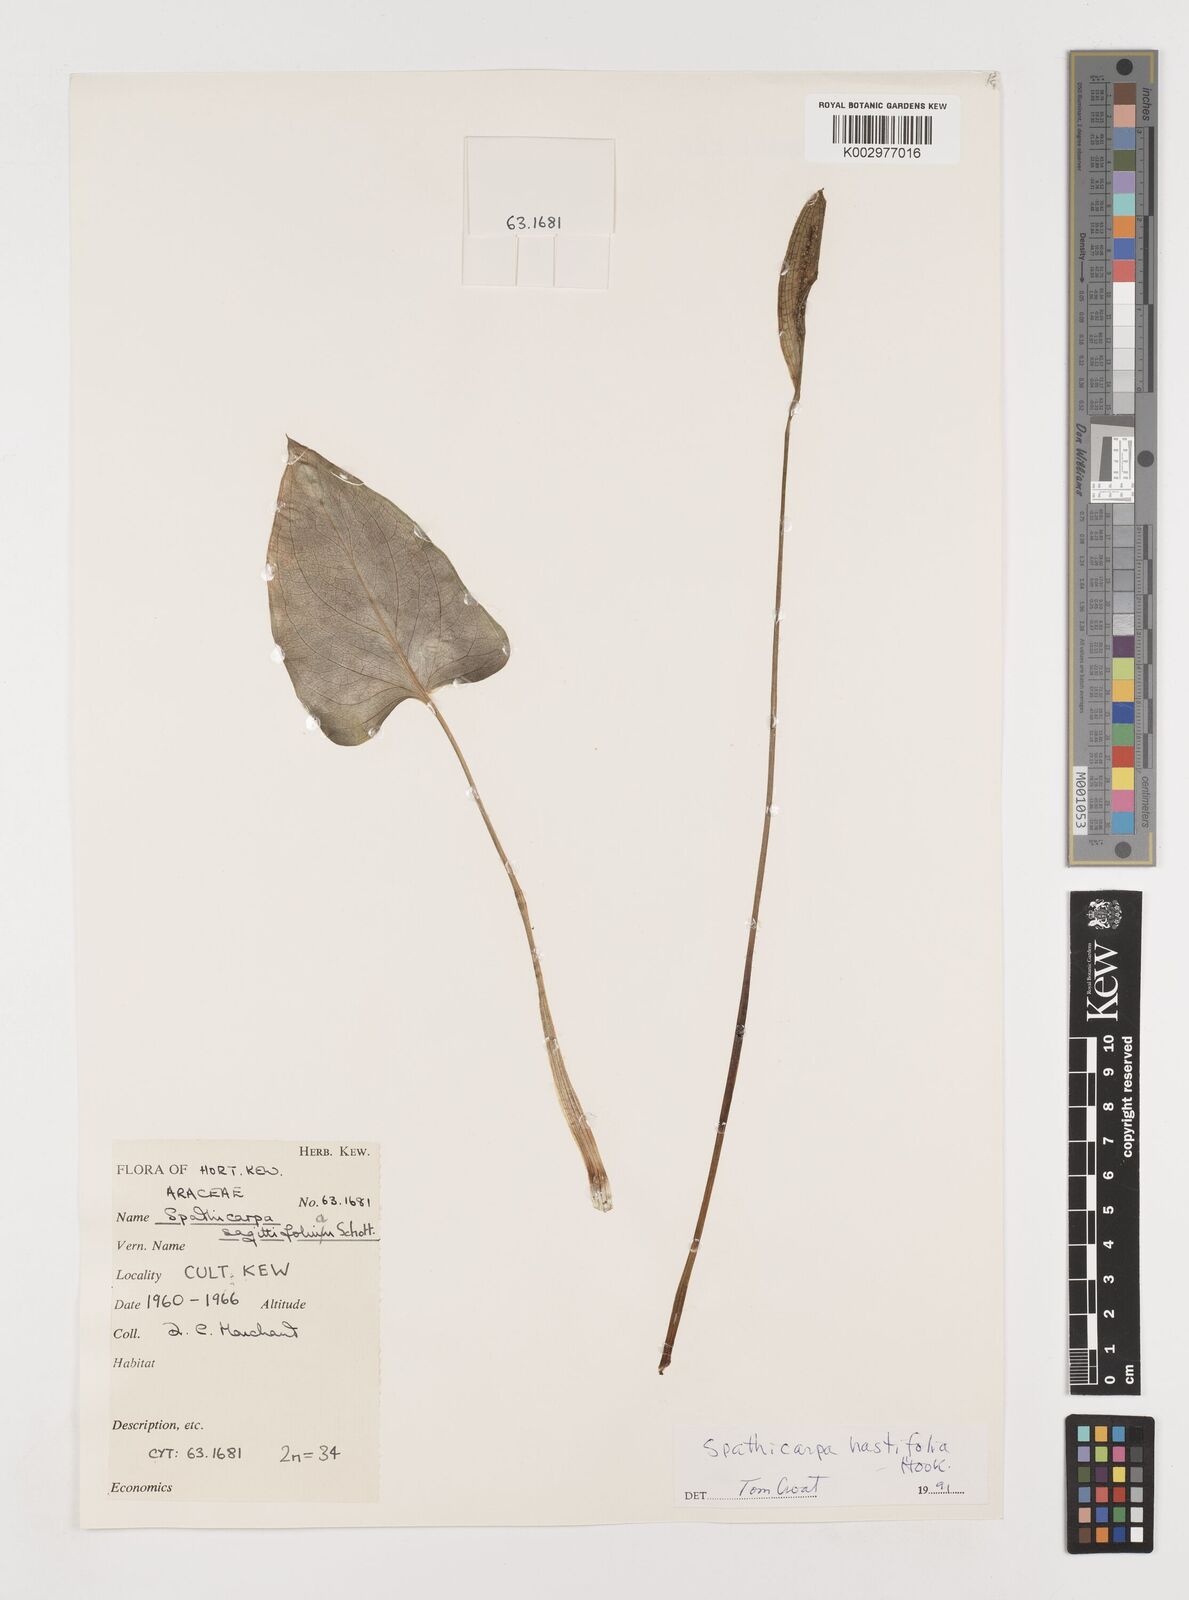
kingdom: Plantae
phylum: Tracheophyta
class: Liliopsida
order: Alismatales
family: Araceae
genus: Spathicarpa
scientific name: Spathicarpa hastifolia
